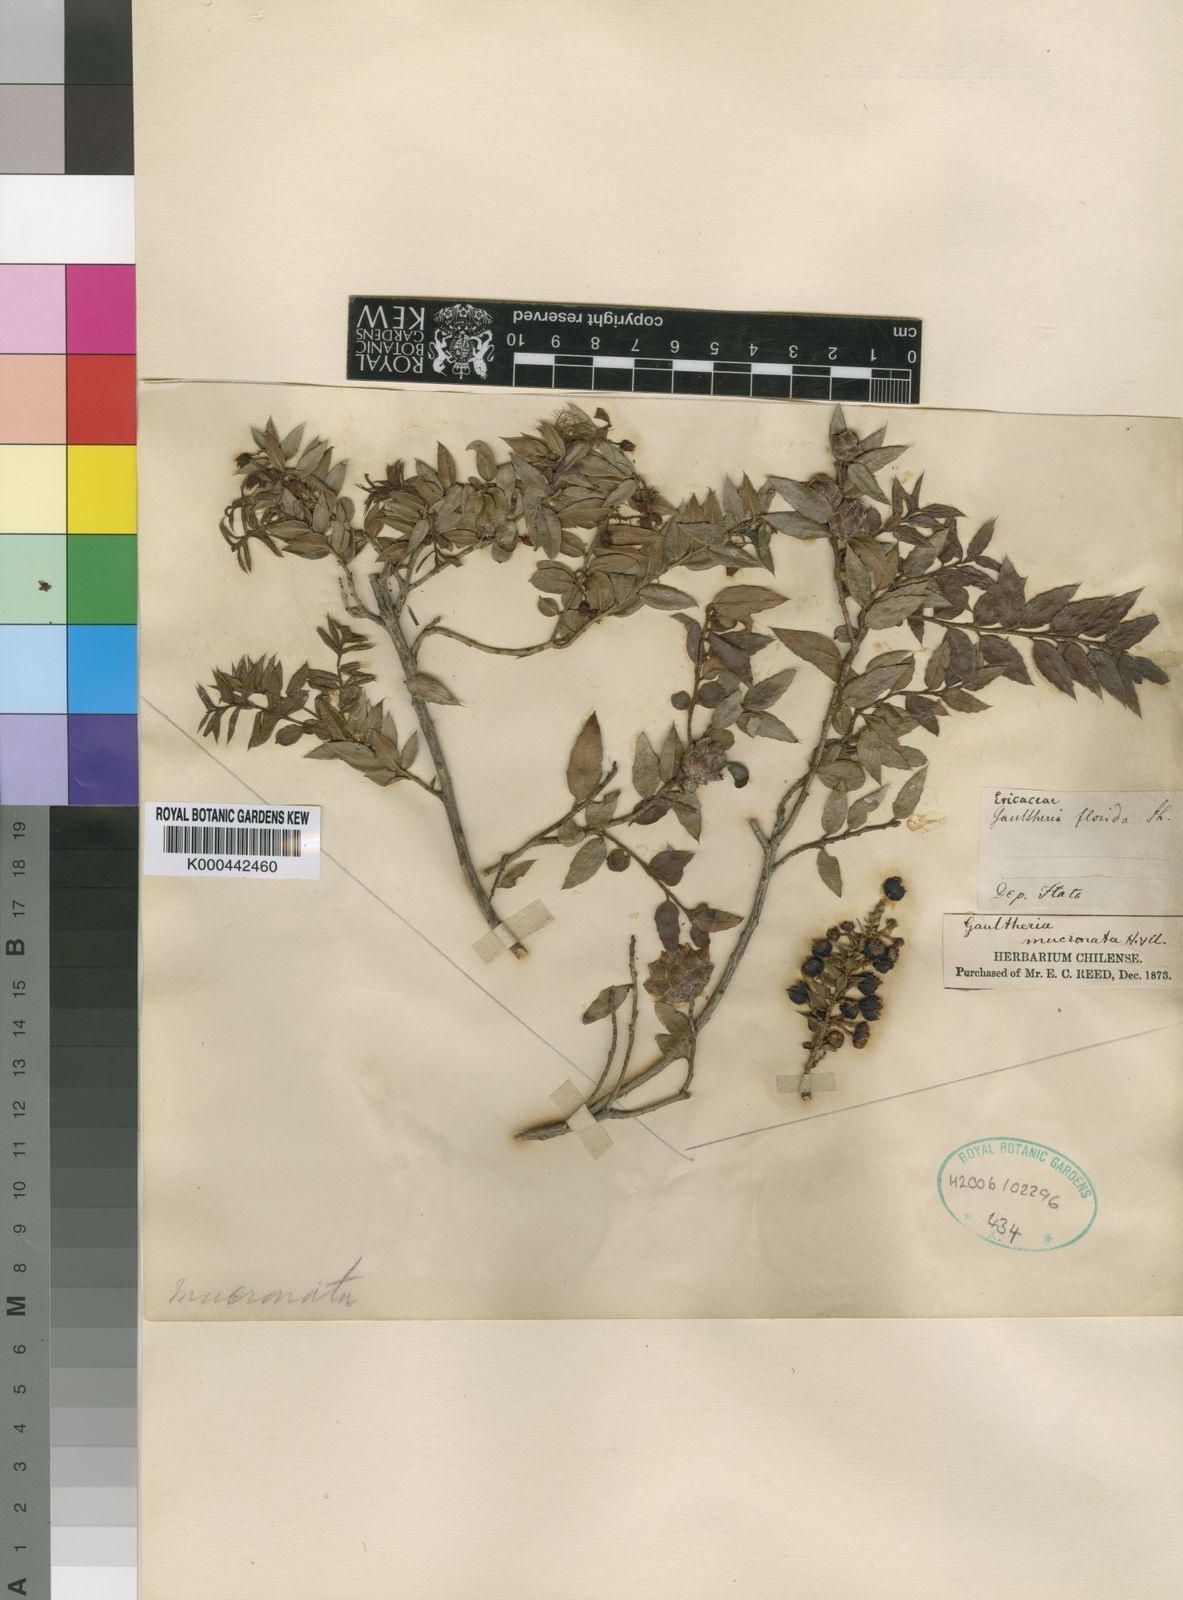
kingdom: Plantae
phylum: Tracheophyta
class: Magnoliopsida
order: Ericales
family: Ericaceae
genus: Gaultheria
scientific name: Gaultheria phillyreifolia
